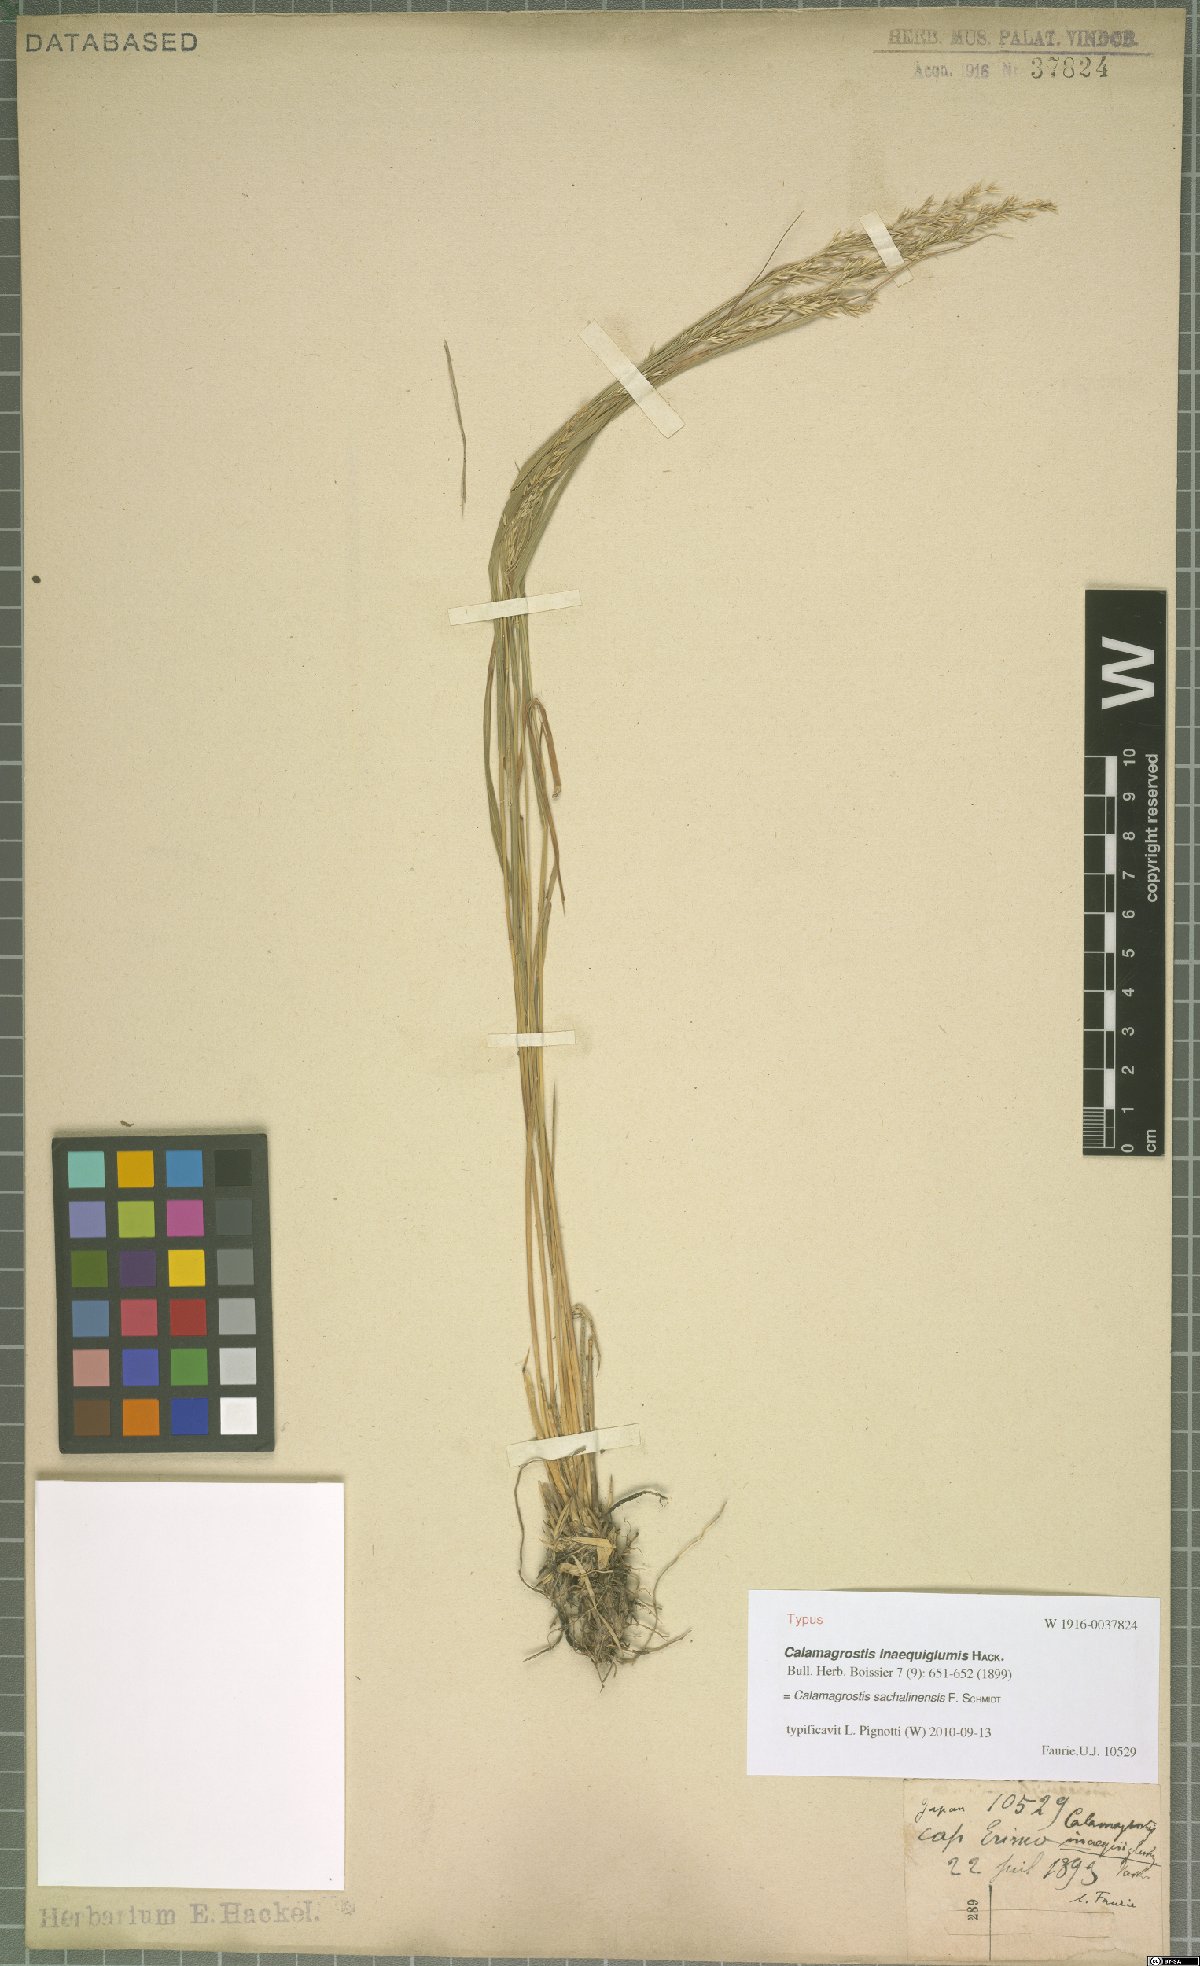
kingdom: Plantae
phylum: Tracheophyta
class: Liliopsida
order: Poales
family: Poaceae
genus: Calamagrostis
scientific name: Calamagrostis sachalinensis
